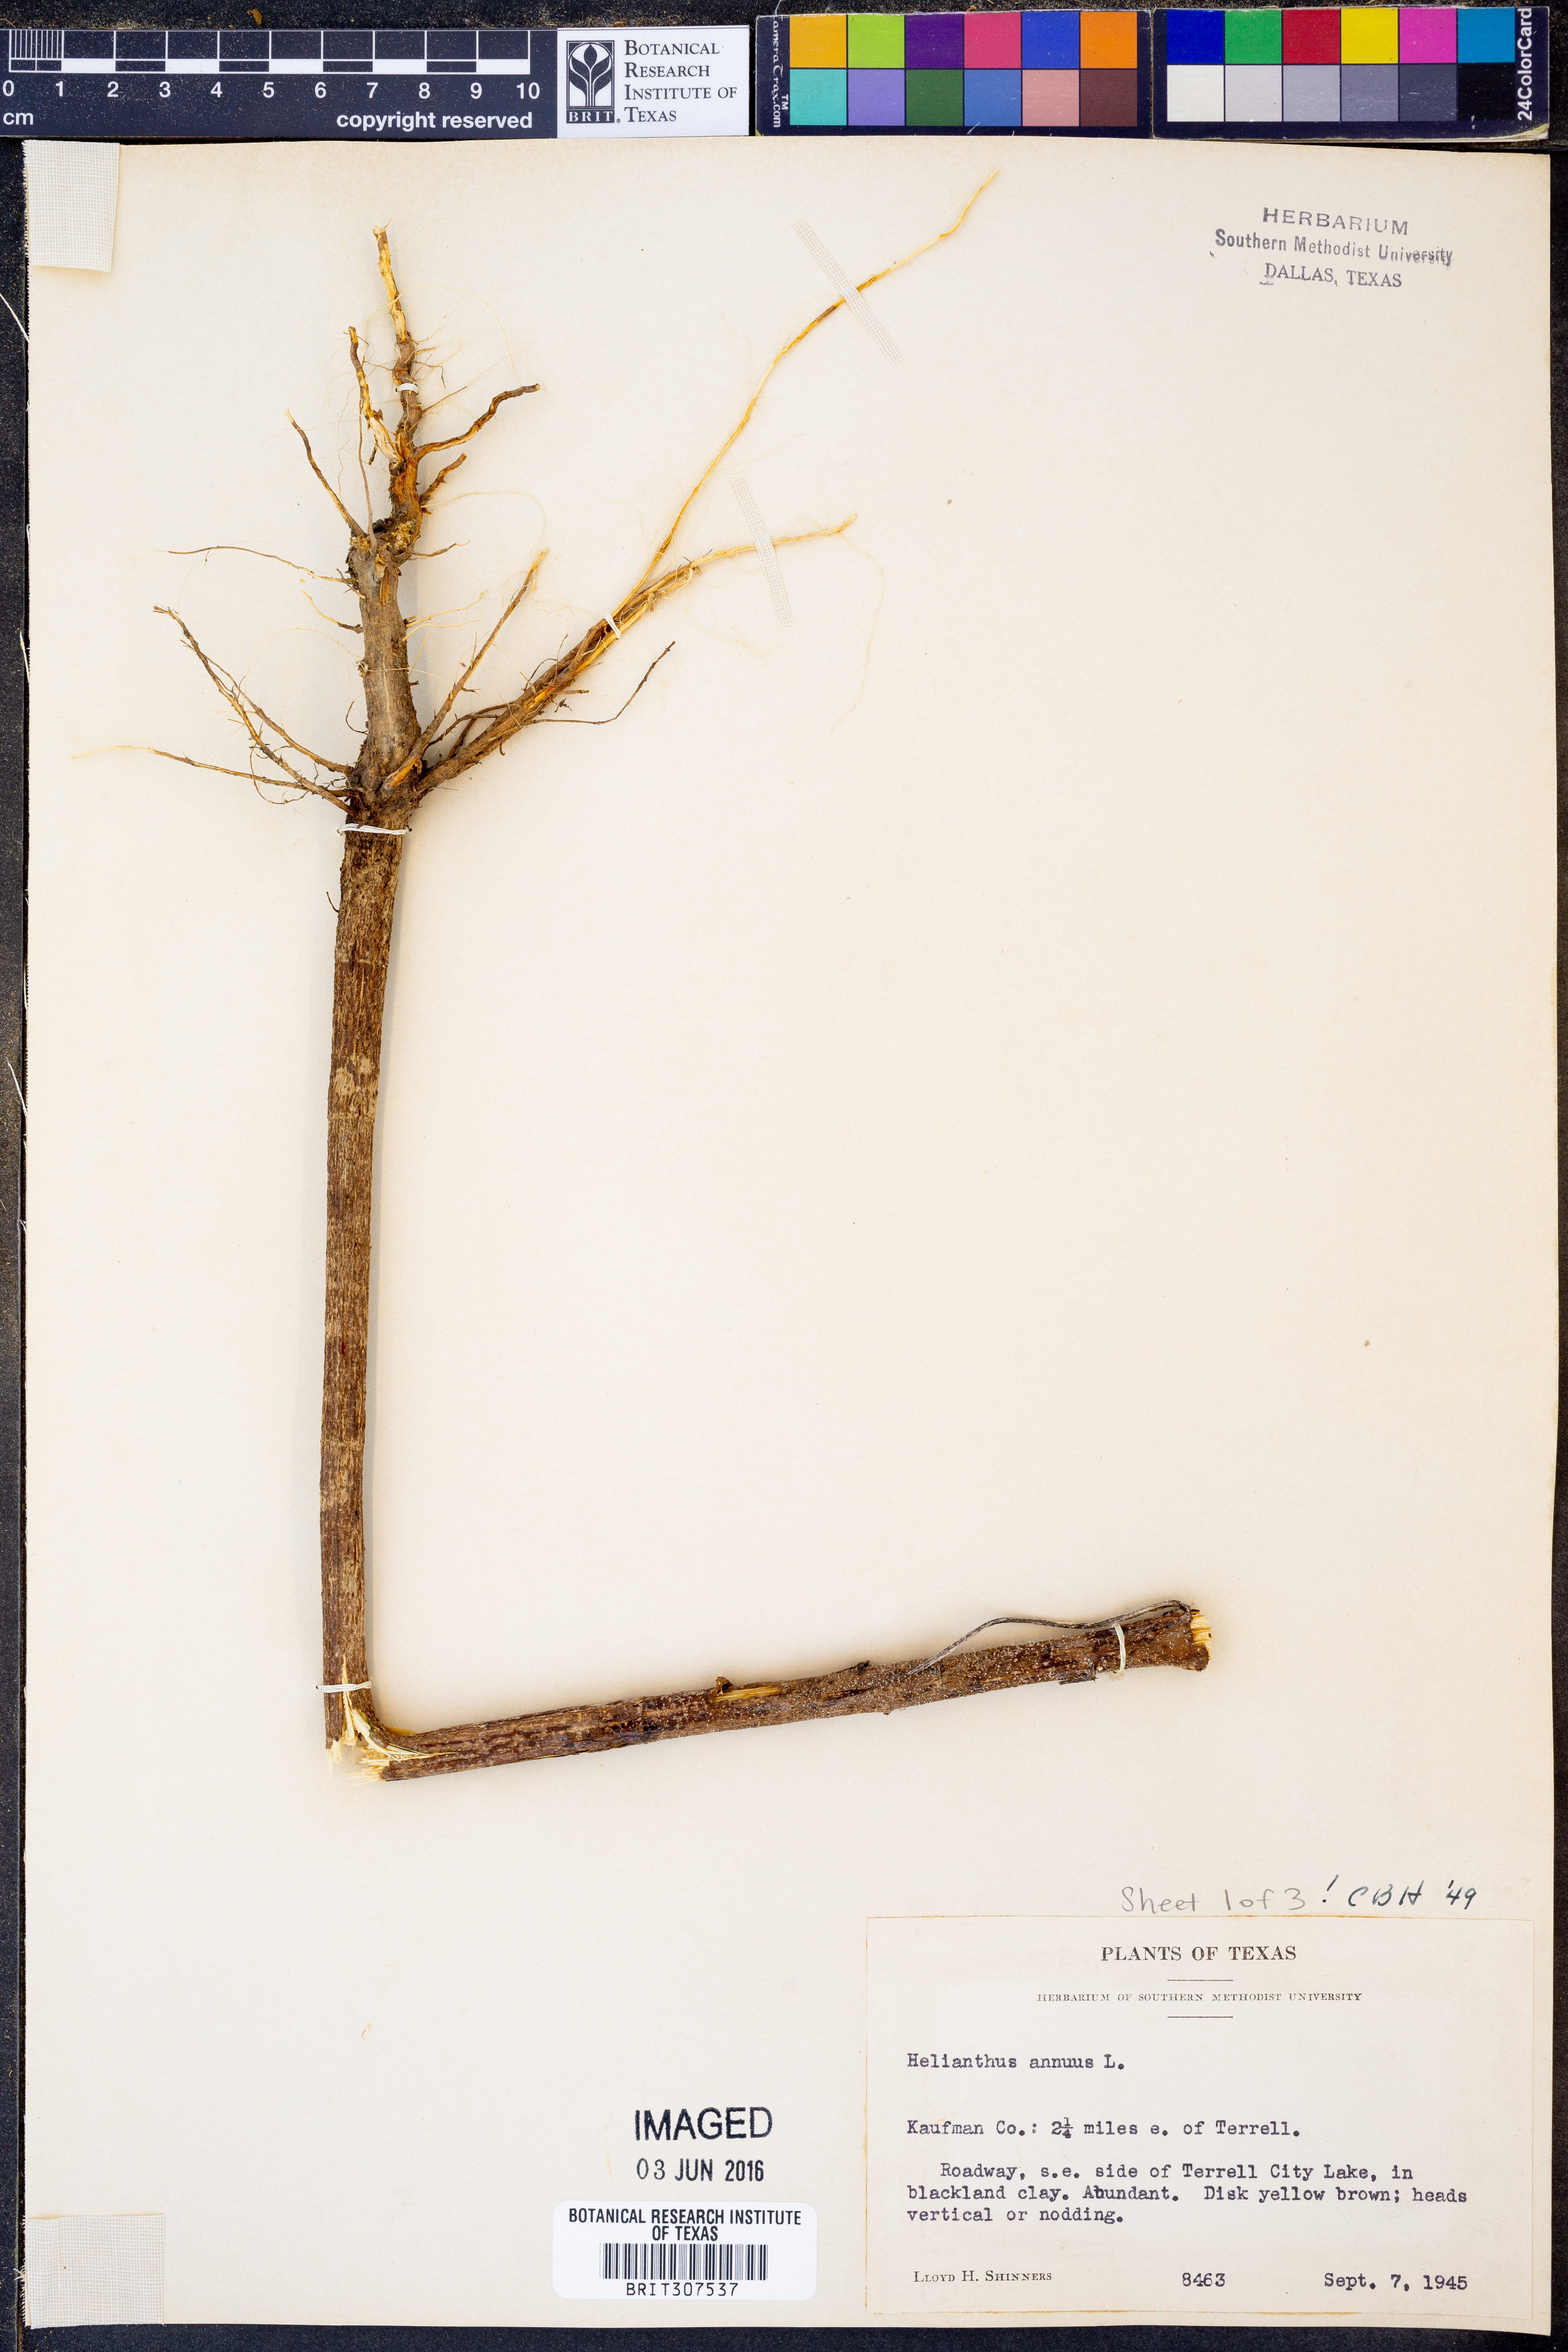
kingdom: Plantae
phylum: Tracheophyta
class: Magnoliopsida
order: Asterales
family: Asteraceae
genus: Helianthus
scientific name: Helianthus annuus
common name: Sunflower
